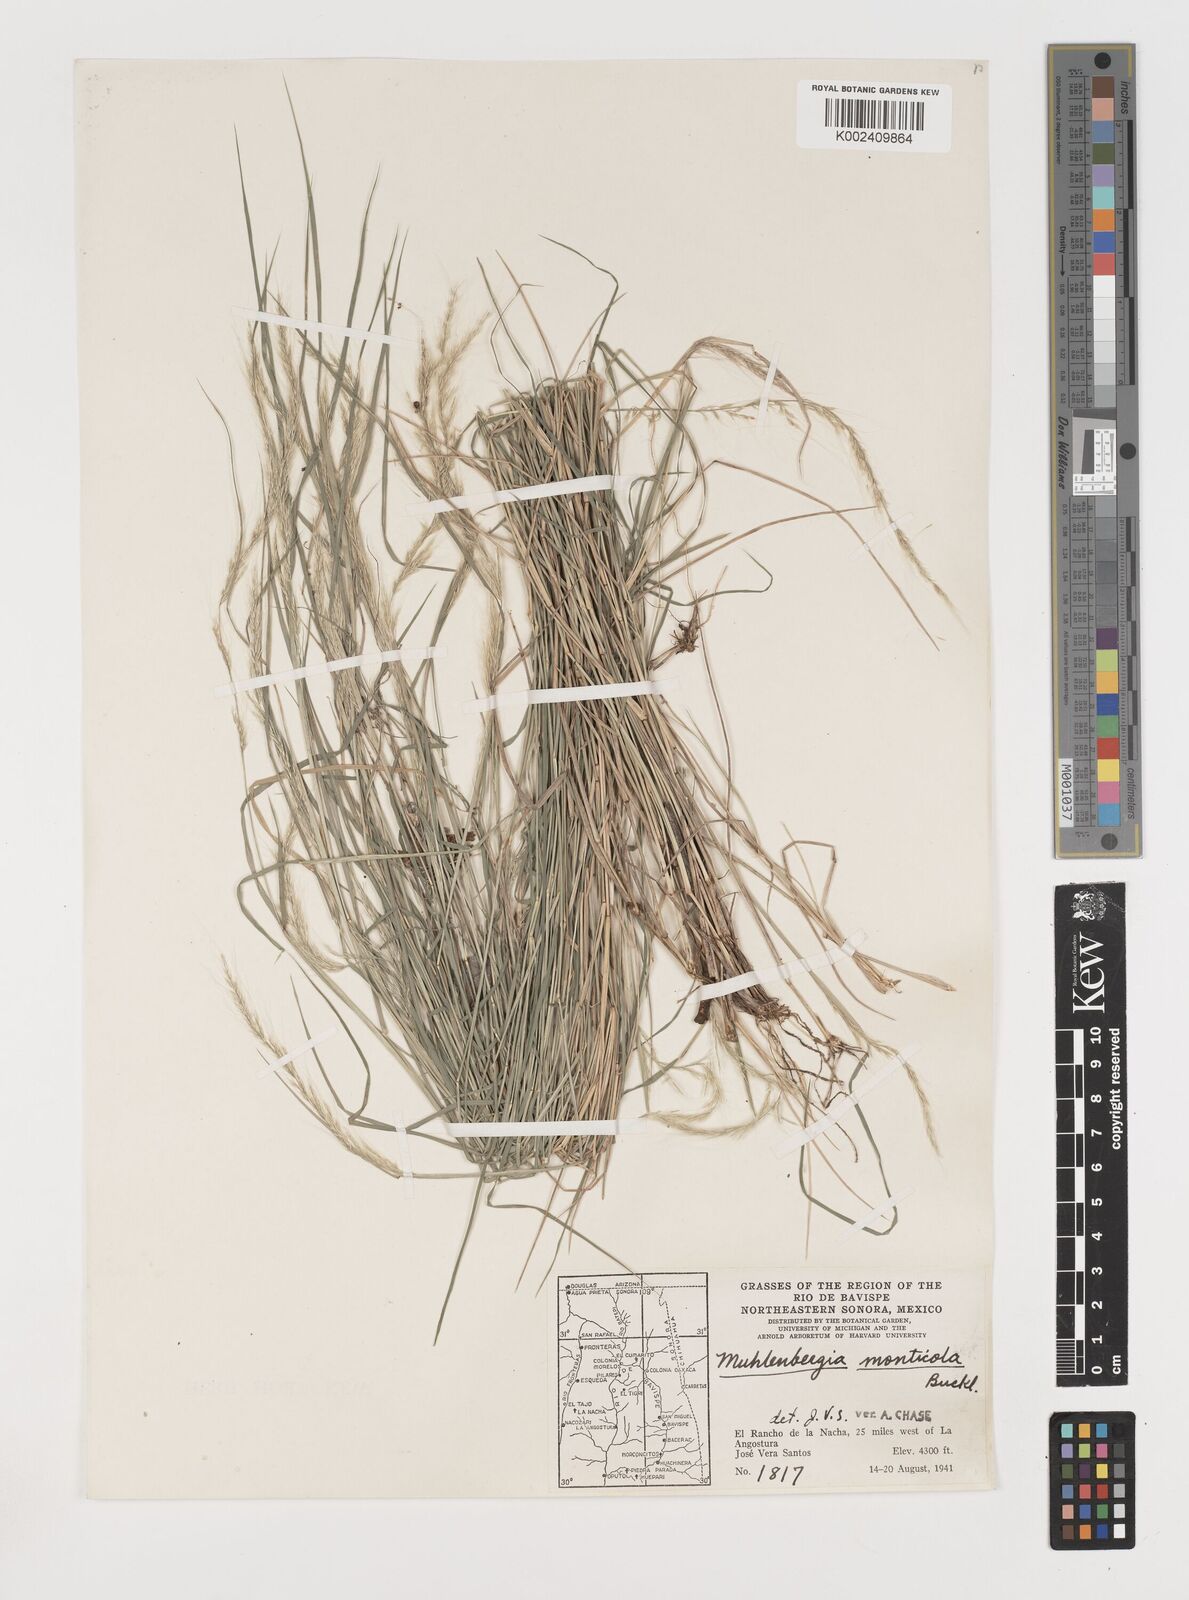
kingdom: Plantae
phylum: Tracheophyta
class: Liliopsida
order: Poales
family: Poaceae
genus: Muhlenbergia
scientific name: Muhlenbergia tenuifolia
